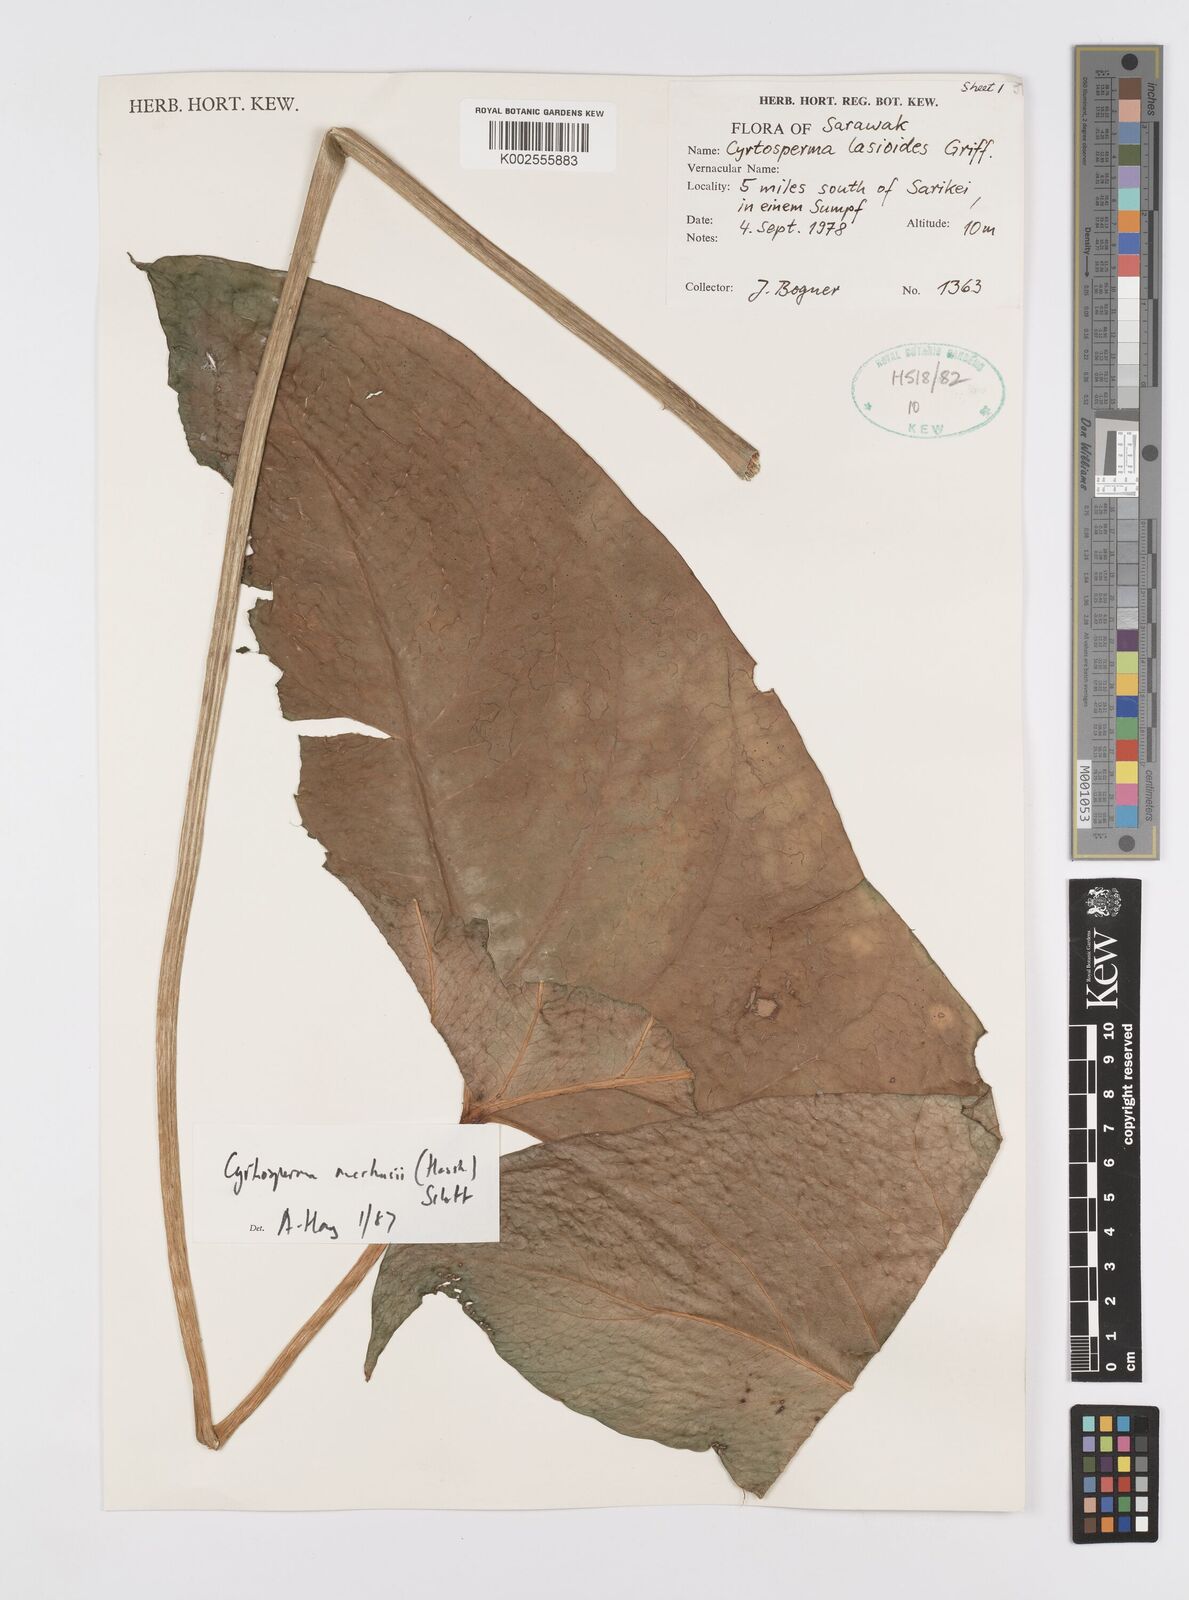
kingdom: Plantae
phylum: Tracheophyta
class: Liliopsida
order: Alismatales
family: Araceae
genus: Cyrtosperma
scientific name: Cyrtosperma merkusii
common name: Giant swamp-taro
